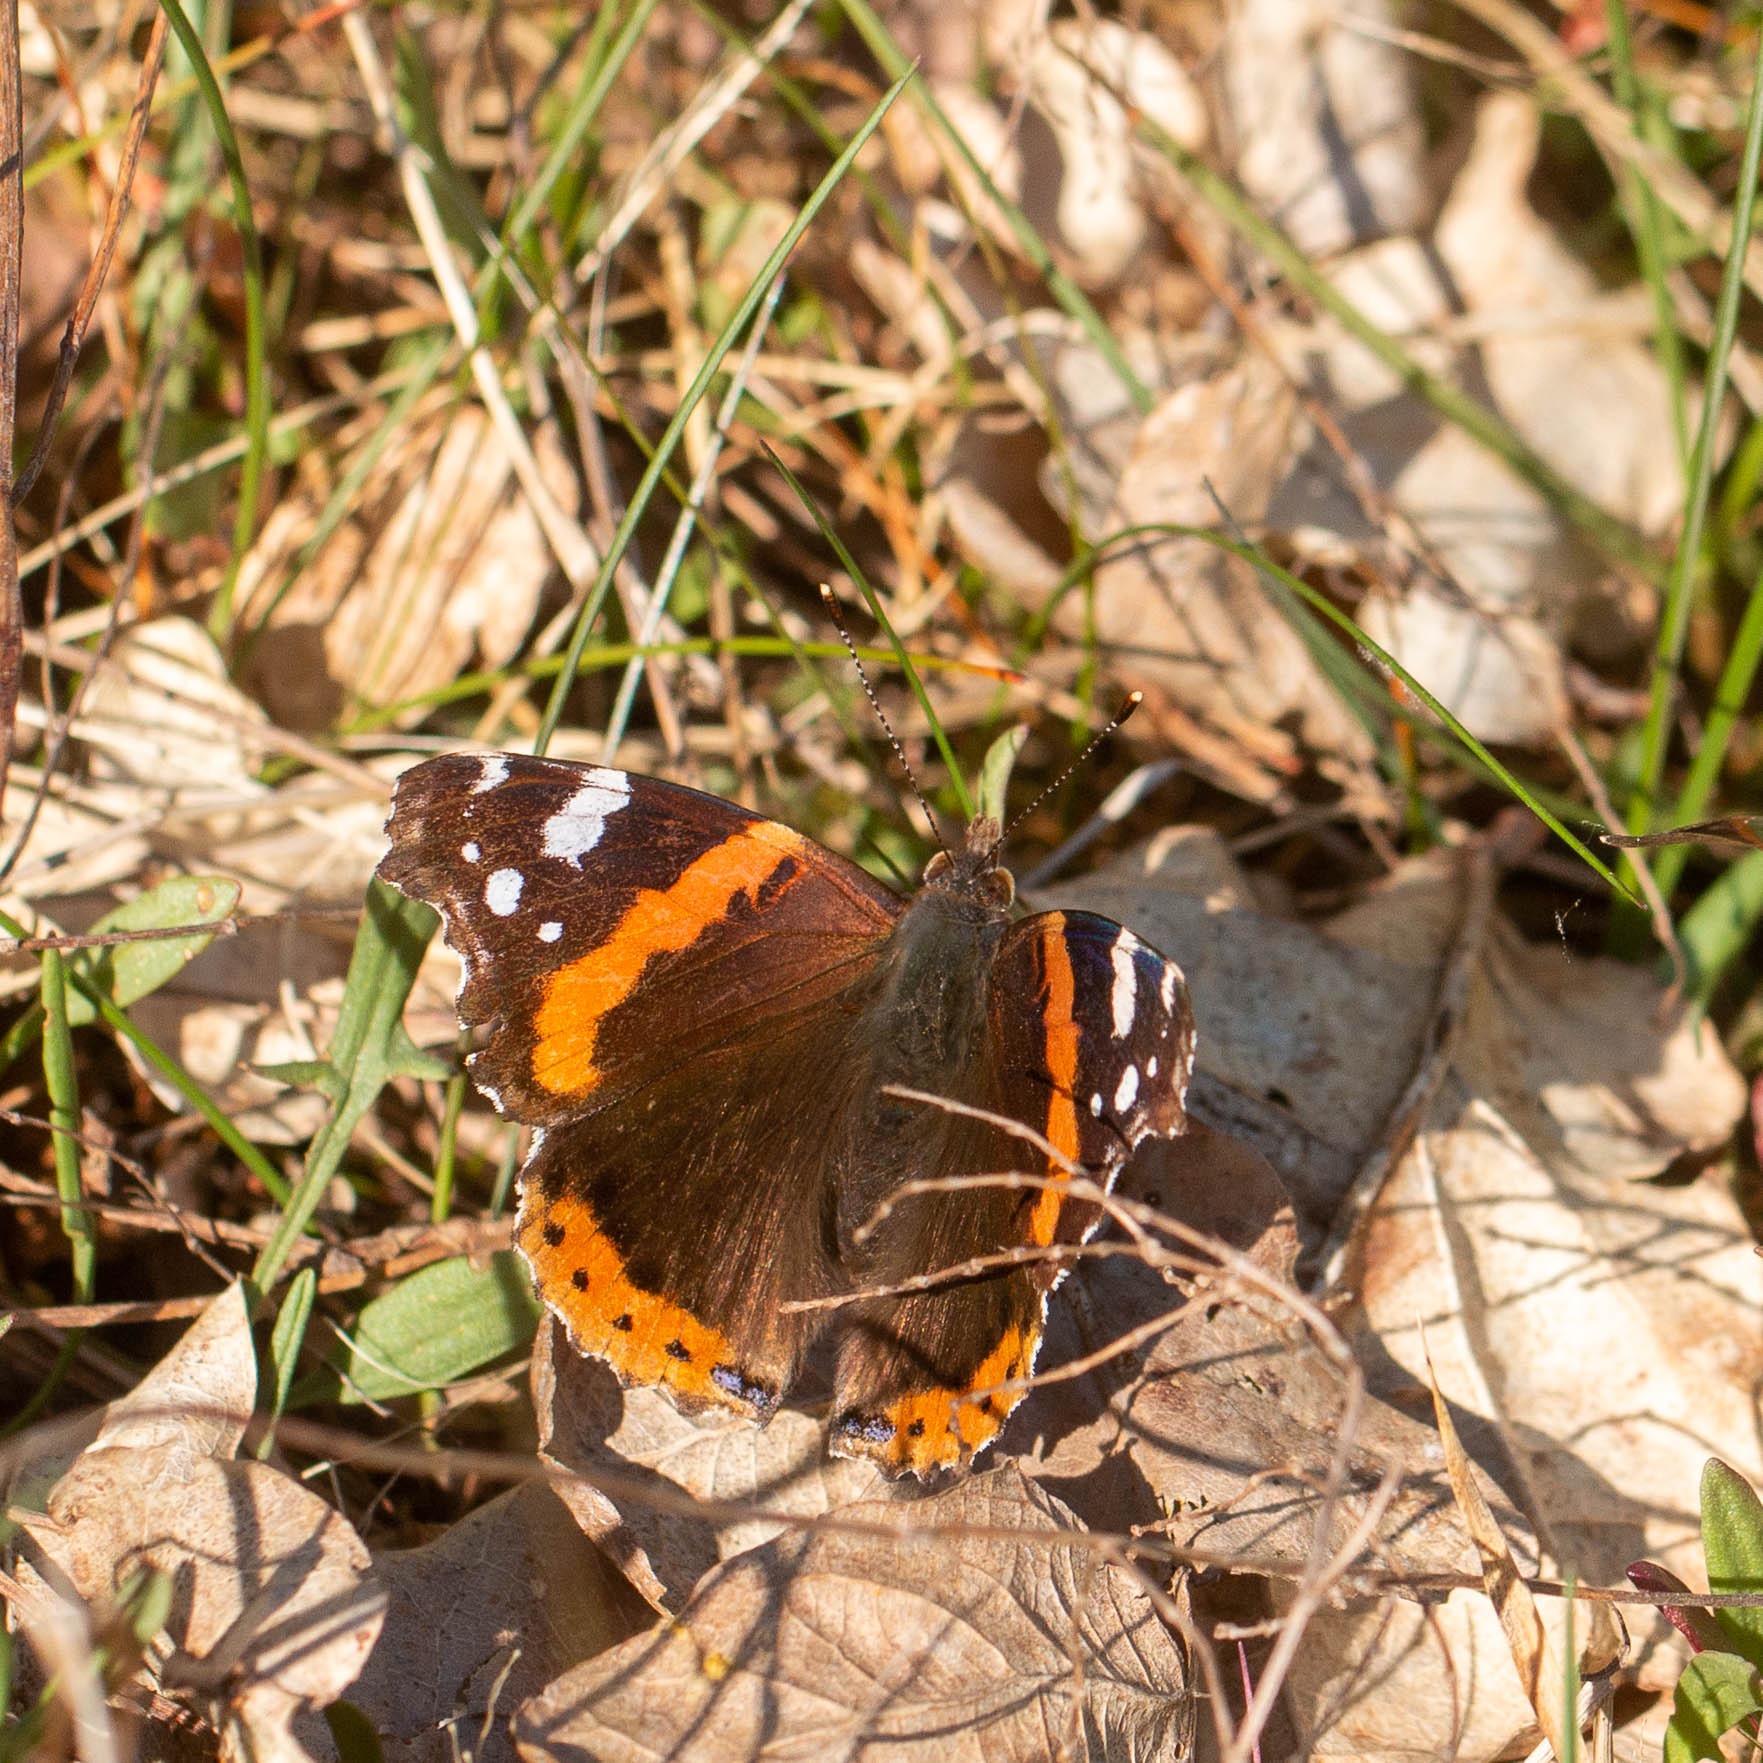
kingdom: Animalia
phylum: Arthropoda
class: Insecta
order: Lepidoptera
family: Nymphalidae
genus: Vanessa
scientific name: Vanessa atalanta
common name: Admiral
